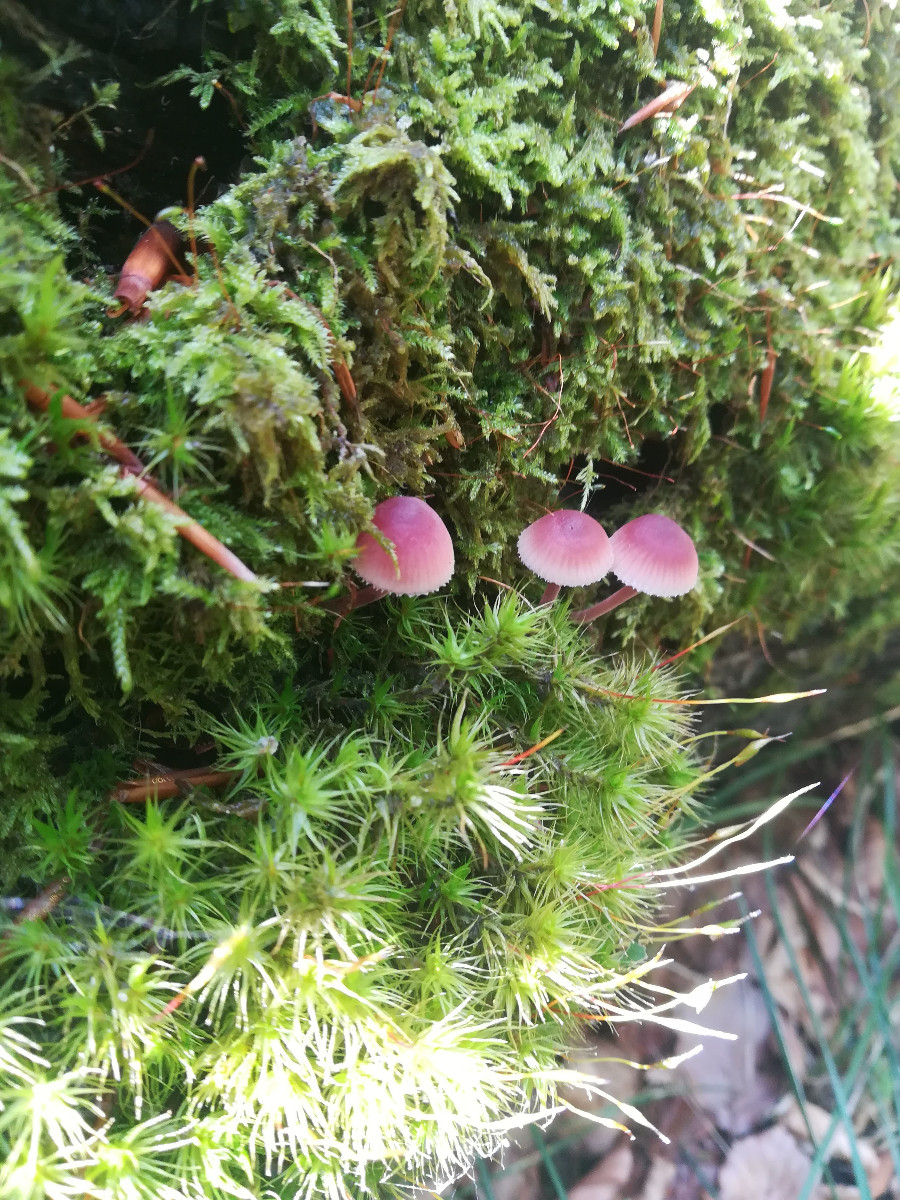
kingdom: Fungi
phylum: Basidiomycota
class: Agaricomycetes
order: Agaricales
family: Mycenaceae
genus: Mycena
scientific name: Mycena haematopus
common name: blødende huesvamp
